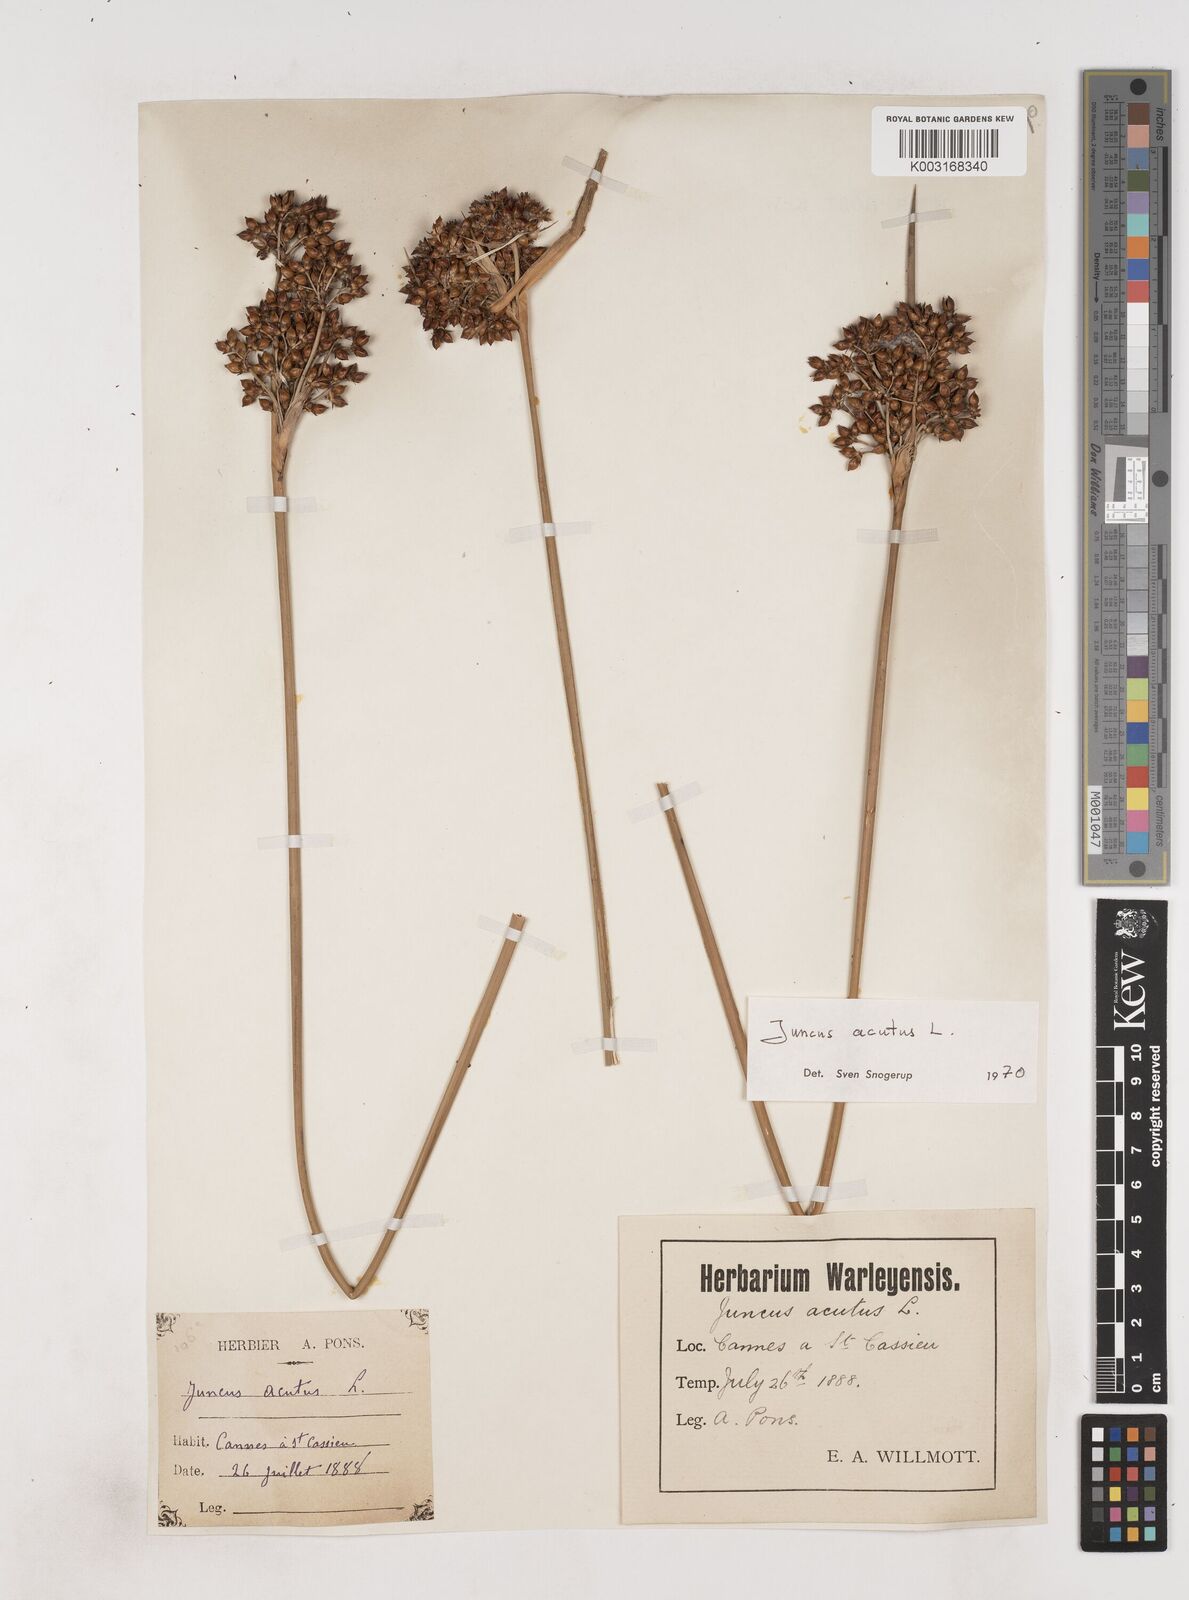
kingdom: Plantae
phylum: Tracheophyta
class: Liliopsida
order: Poales
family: Juncaceae
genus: Juncus
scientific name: Juncus acutus
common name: Sharp rush
